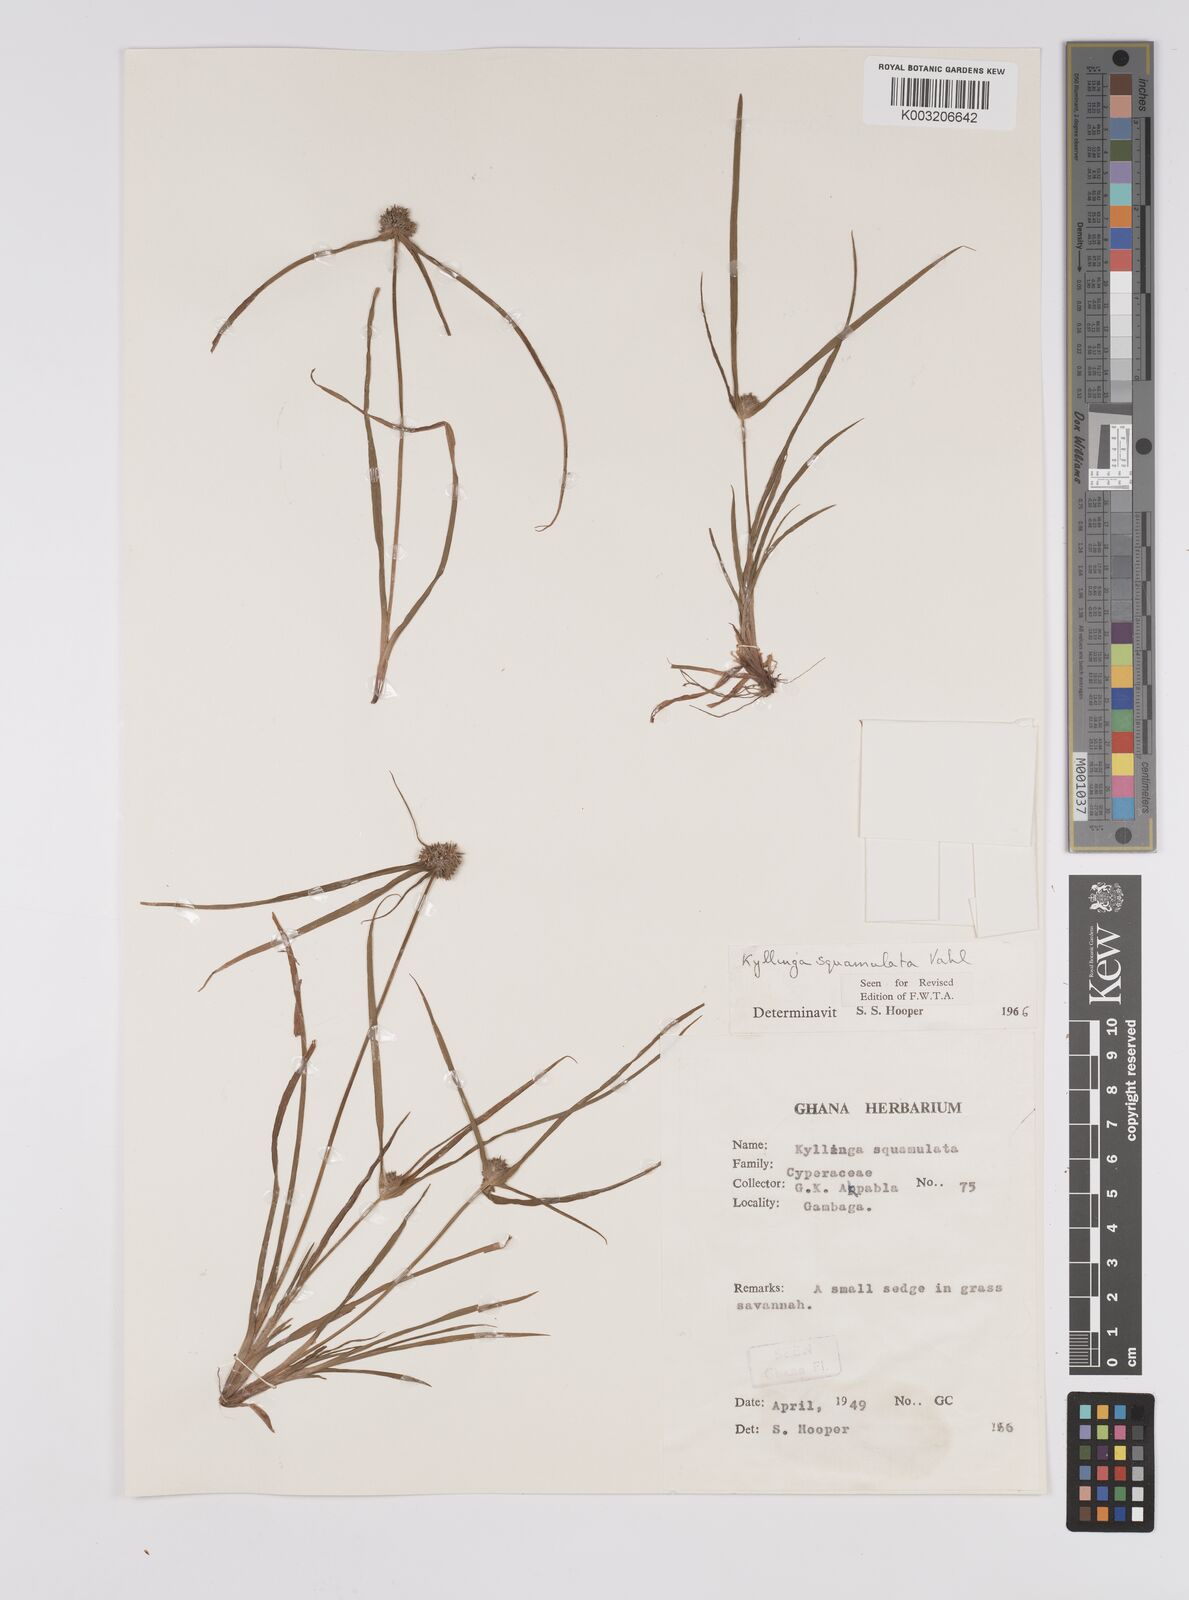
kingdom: Plantae
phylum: Tracheophyta
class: Liliopsida
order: Poales
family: Cyperaceae
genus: Cyperus
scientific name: Cyperus distans
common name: Slender cyperus
